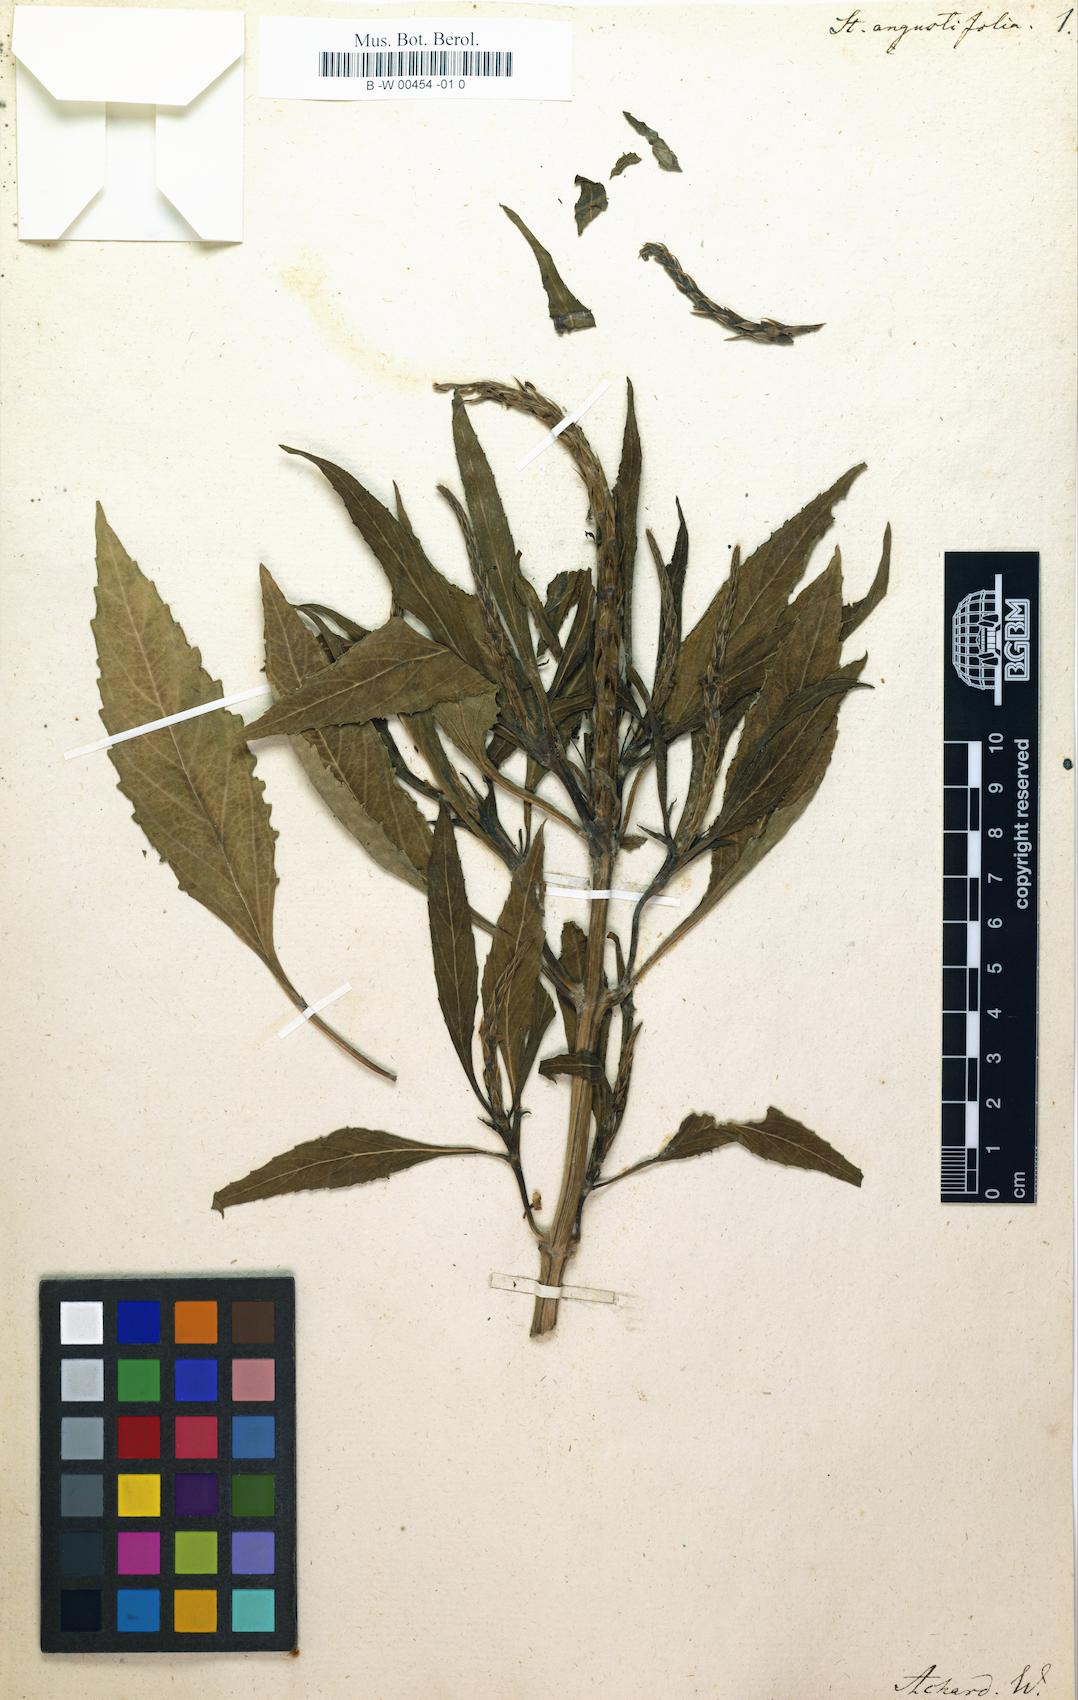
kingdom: Plantae
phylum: Tracheophyta
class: Magnoliopsida
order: Lamiales
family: Verbenaceae
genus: Stachytarpheta
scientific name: Stachytarpheta indica
